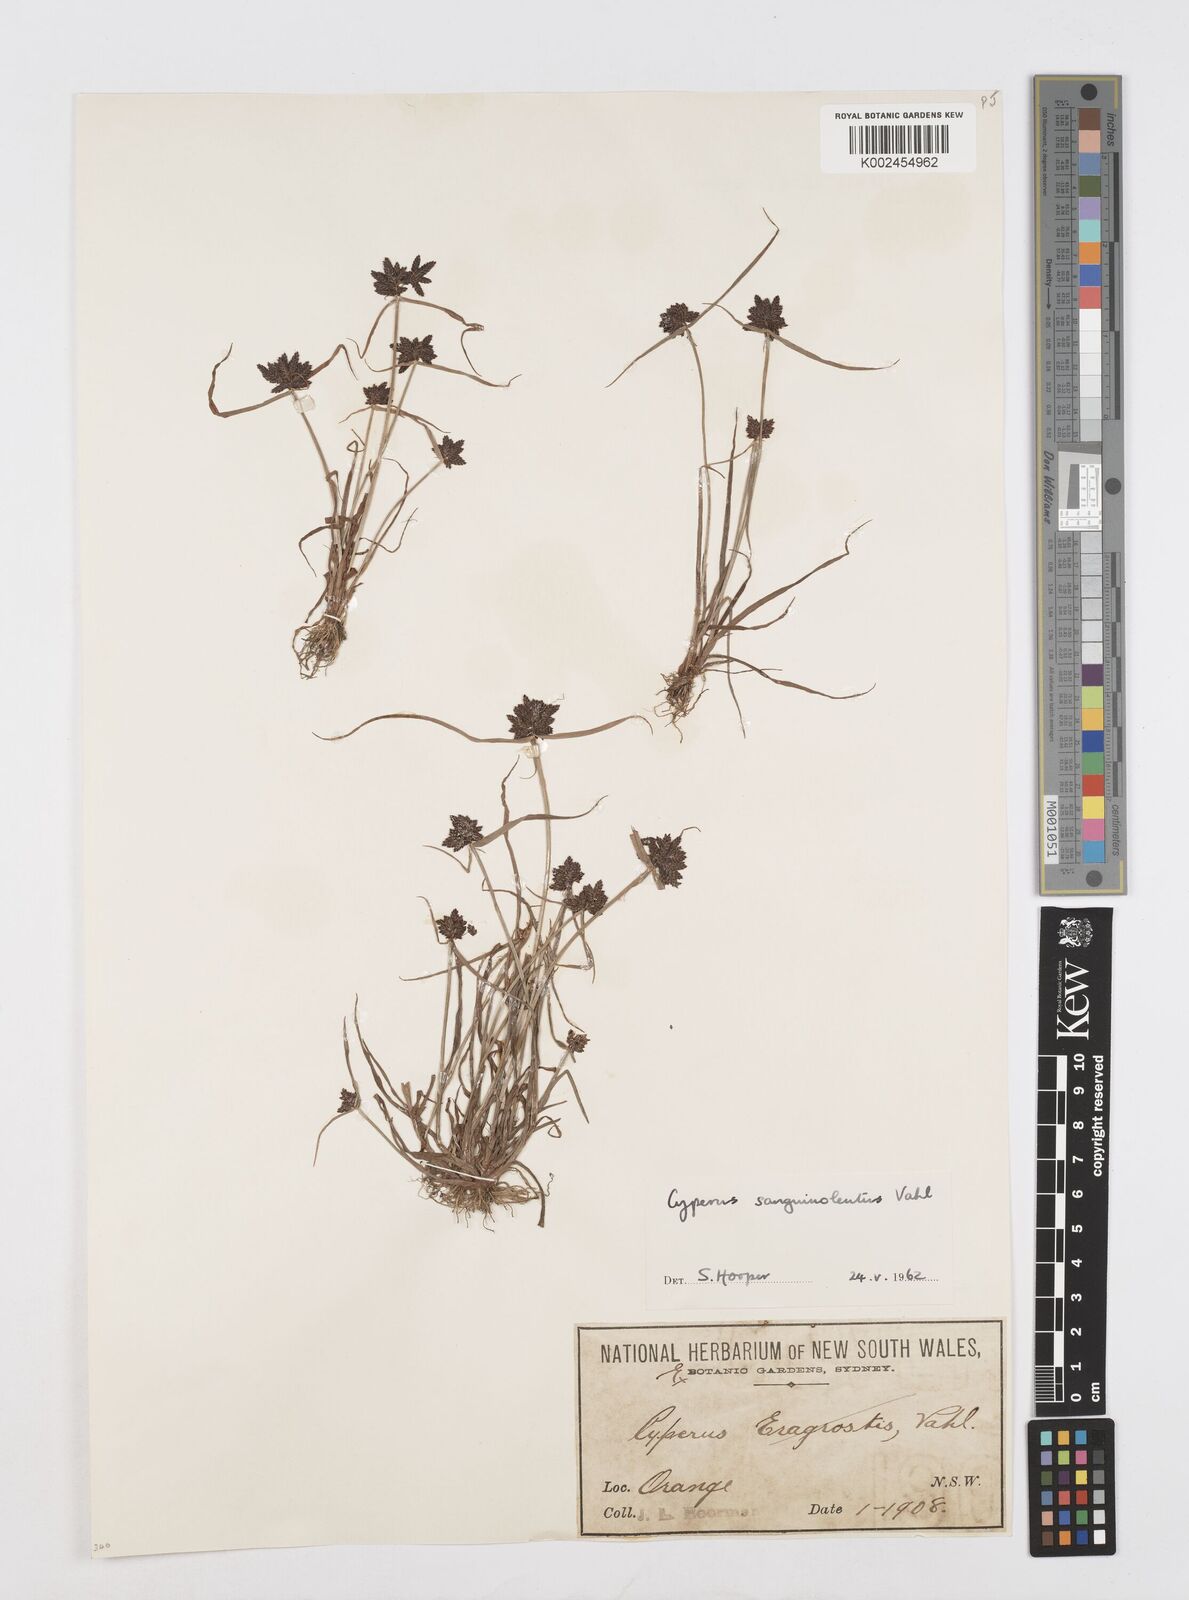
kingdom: Plantae
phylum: Tracheophyta
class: Liliopsida
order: Poales
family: Cyperaceae
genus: Cyperus
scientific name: Cyperus sanguinolentus
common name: Purpleglume flatsedge
